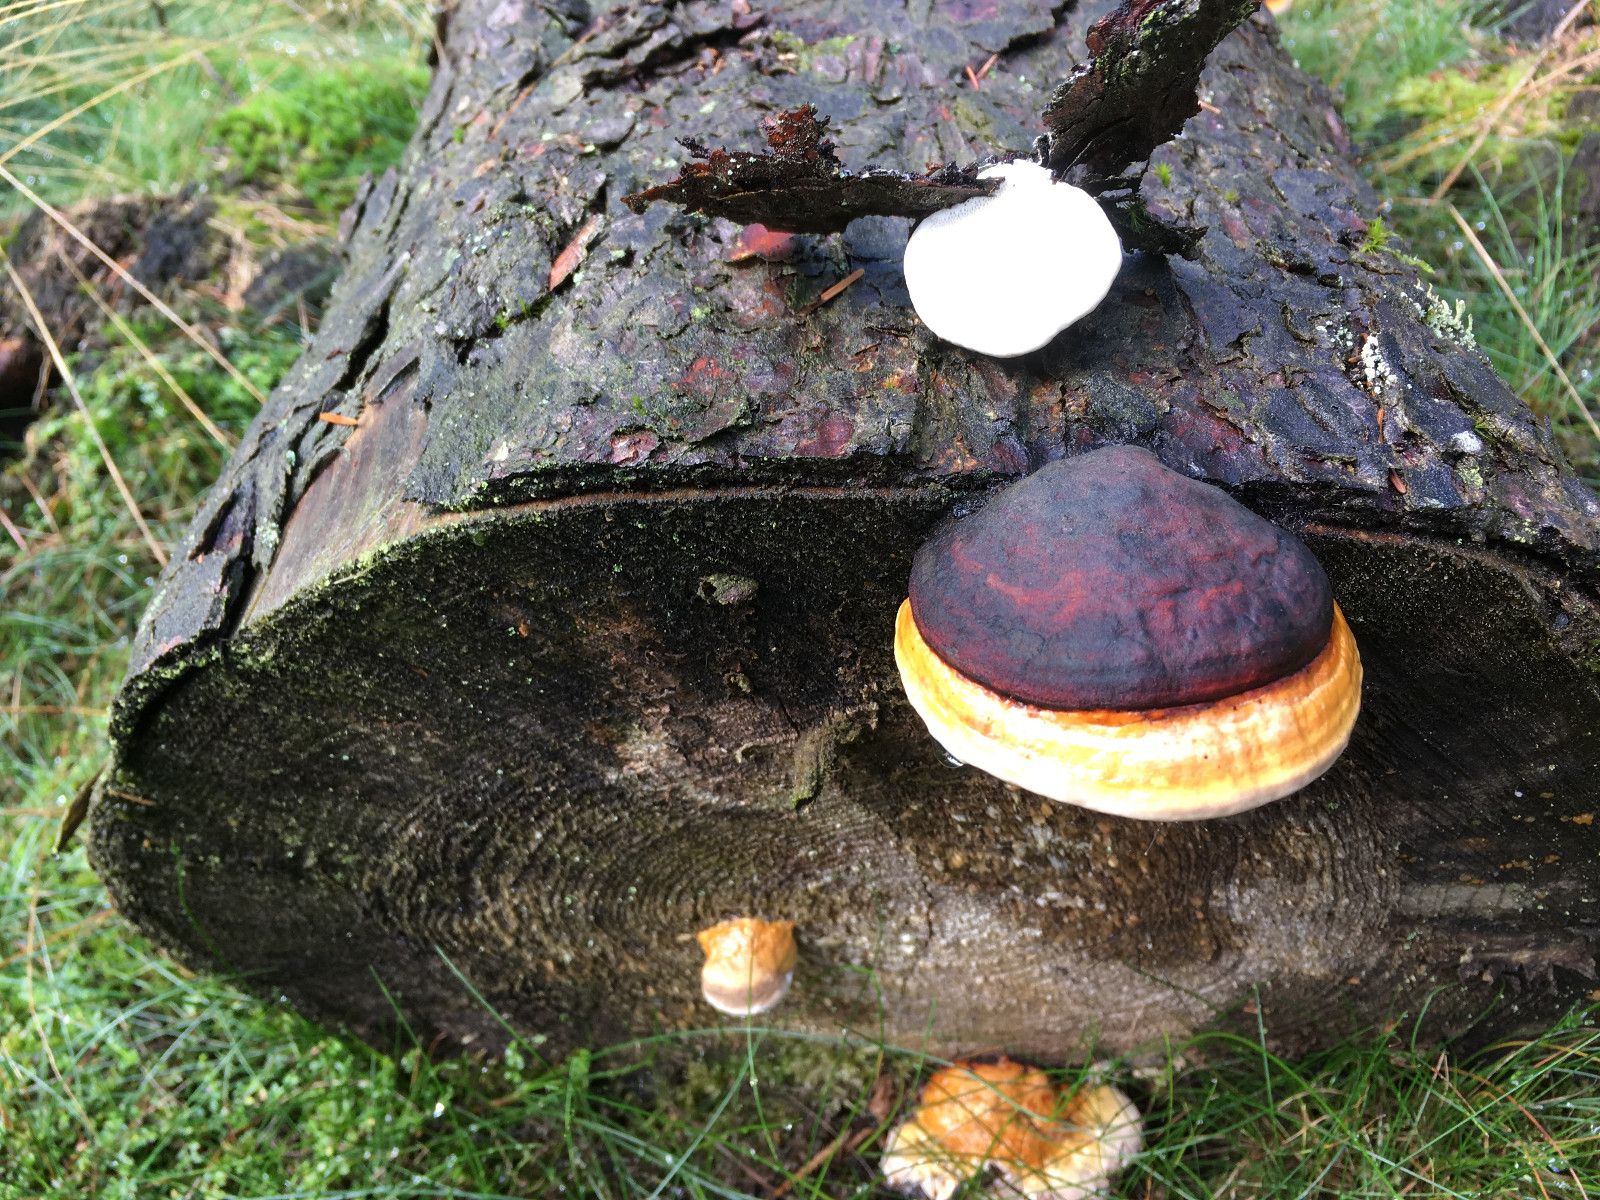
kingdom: Fungi
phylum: Basidiomycota
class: Agaricomycetes
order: Polyporales
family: Fomitopsidaceae
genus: Fomitopsis
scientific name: Fomitopsis pinicola
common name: randbæltet hovporesvamp
